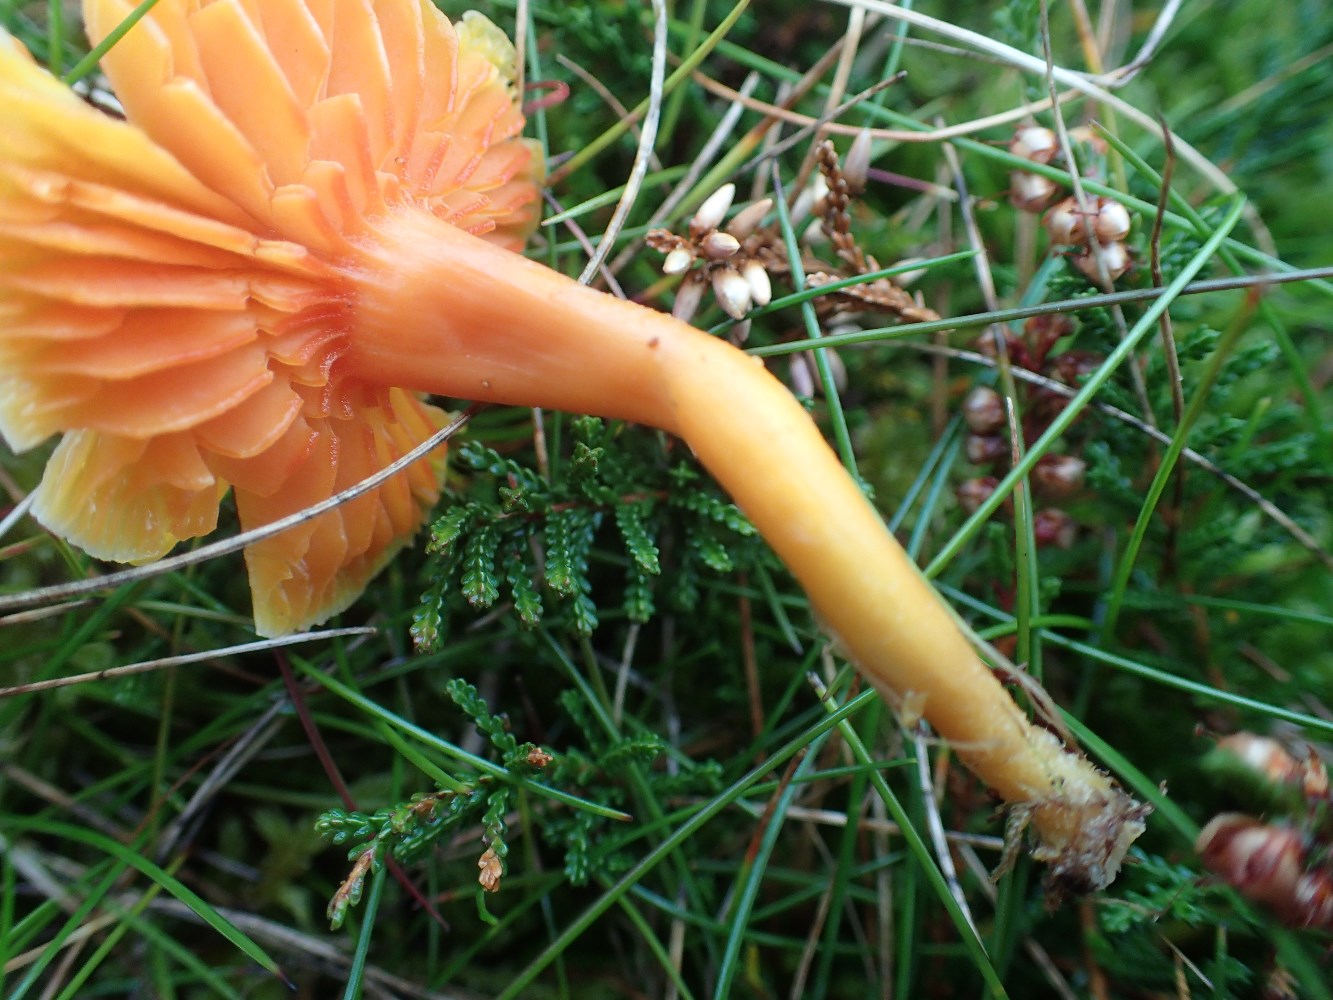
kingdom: Fungi
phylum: Basidiomycota
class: Agaricomycetes
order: Agaricales
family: Hygrophoraceae
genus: Hygrocybe
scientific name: Hygrocybe reidii
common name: honning-vokshat
